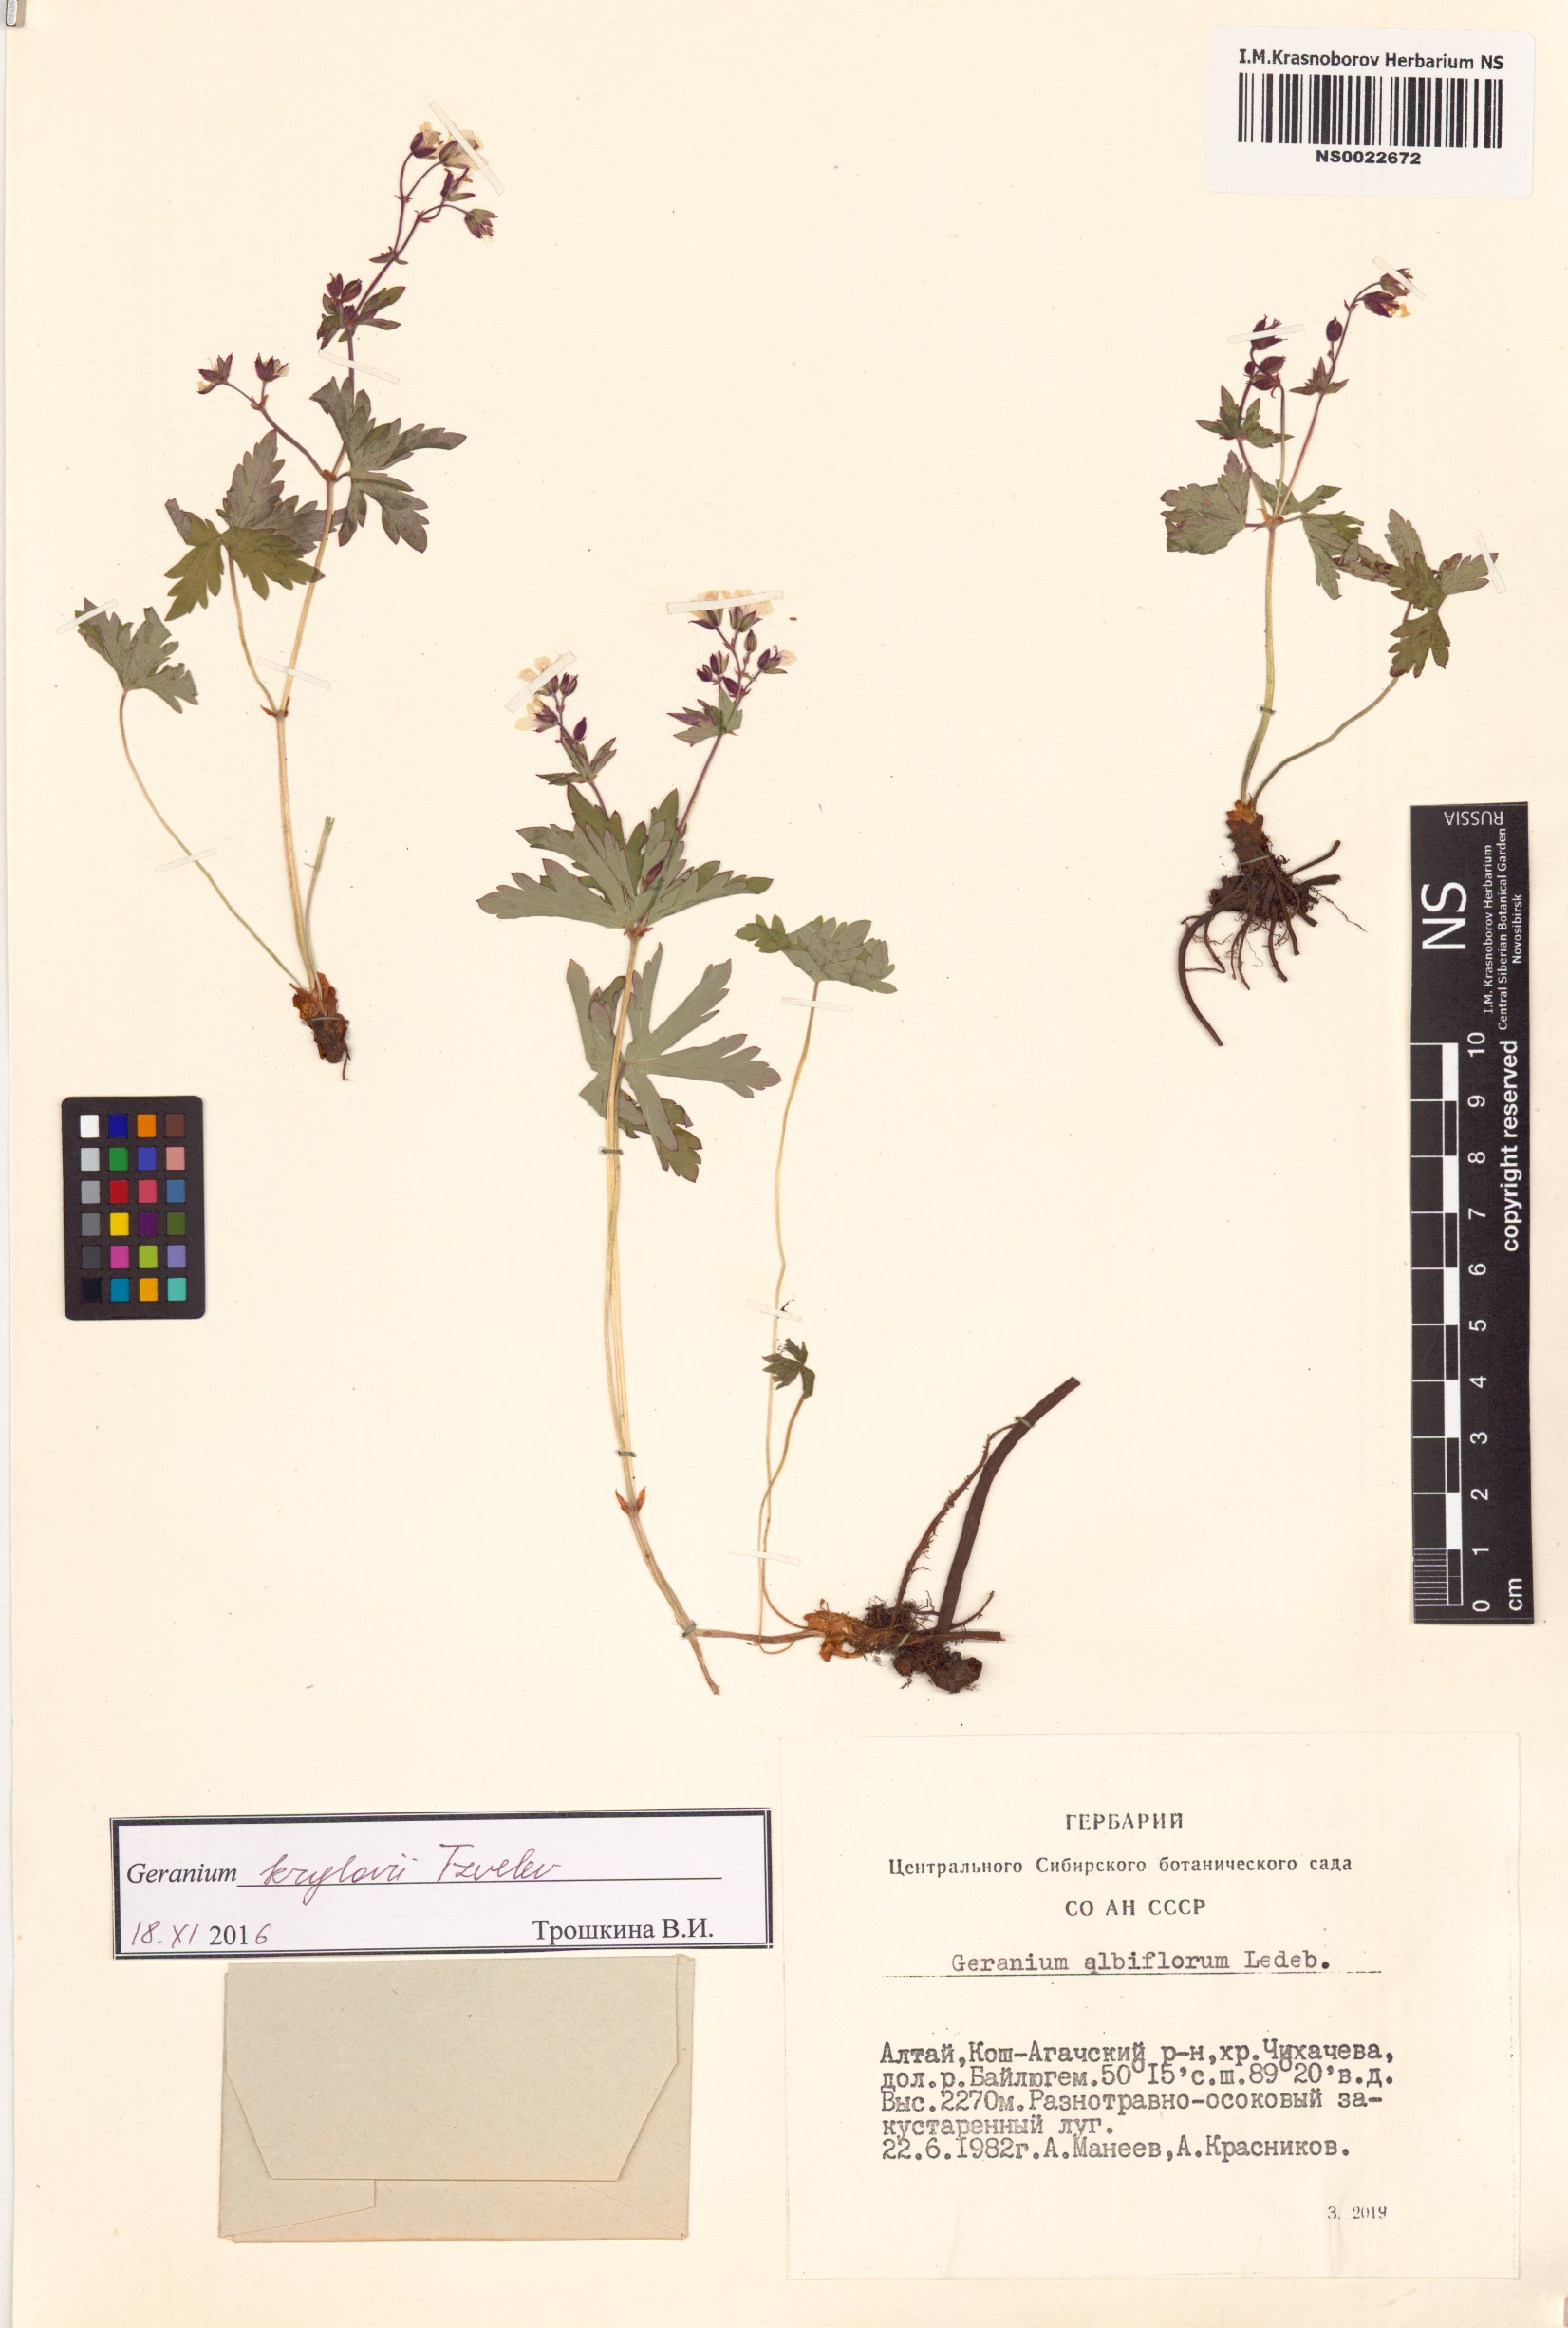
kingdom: Plantae
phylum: Tracheophyta
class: Magnoliopsida
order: Geraniales
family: Geraniaceae
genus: Geranium
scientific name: Geranium sylvaticum
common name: Wood crane's-bill
